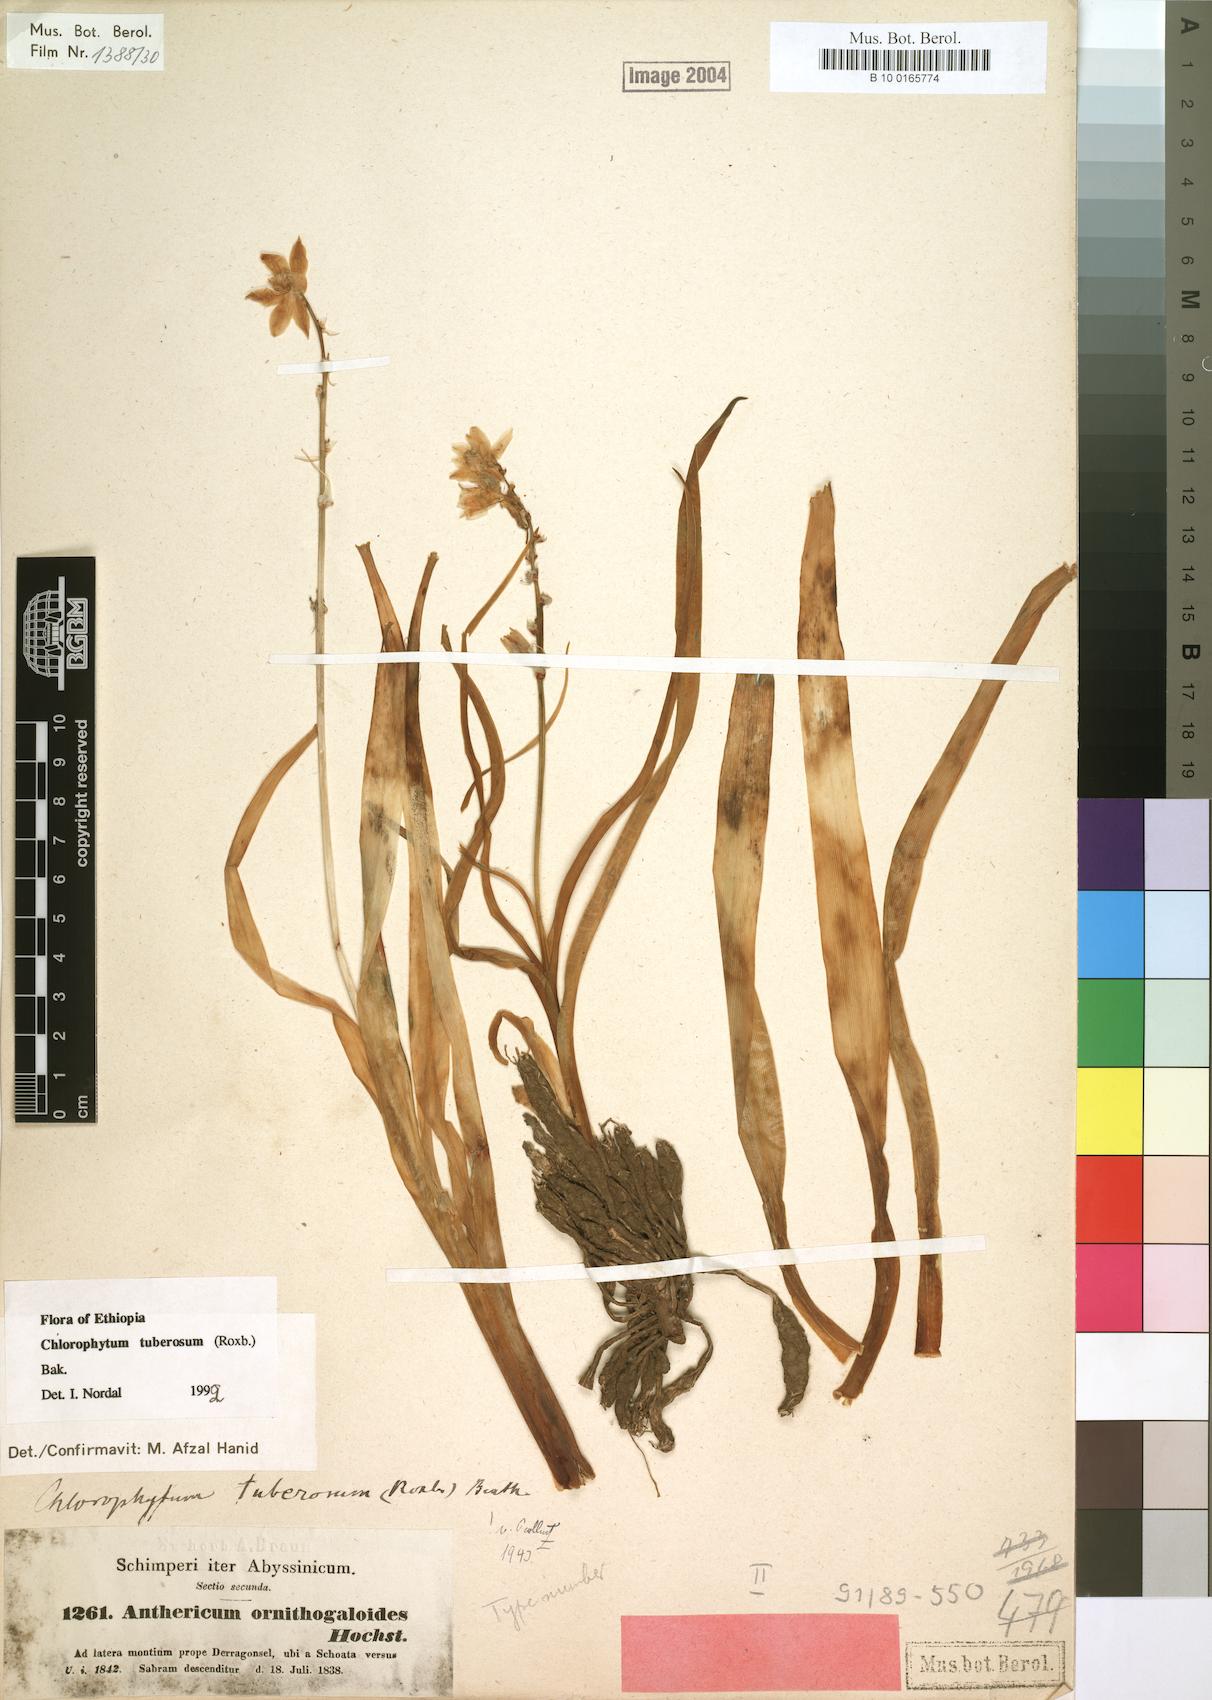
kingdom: Plantae
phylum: Tracheophyta
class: Liliopsida
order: Asparagales
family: Asparagaceae
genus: Chlorophytum
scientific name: Chlorophytum tuberosum
